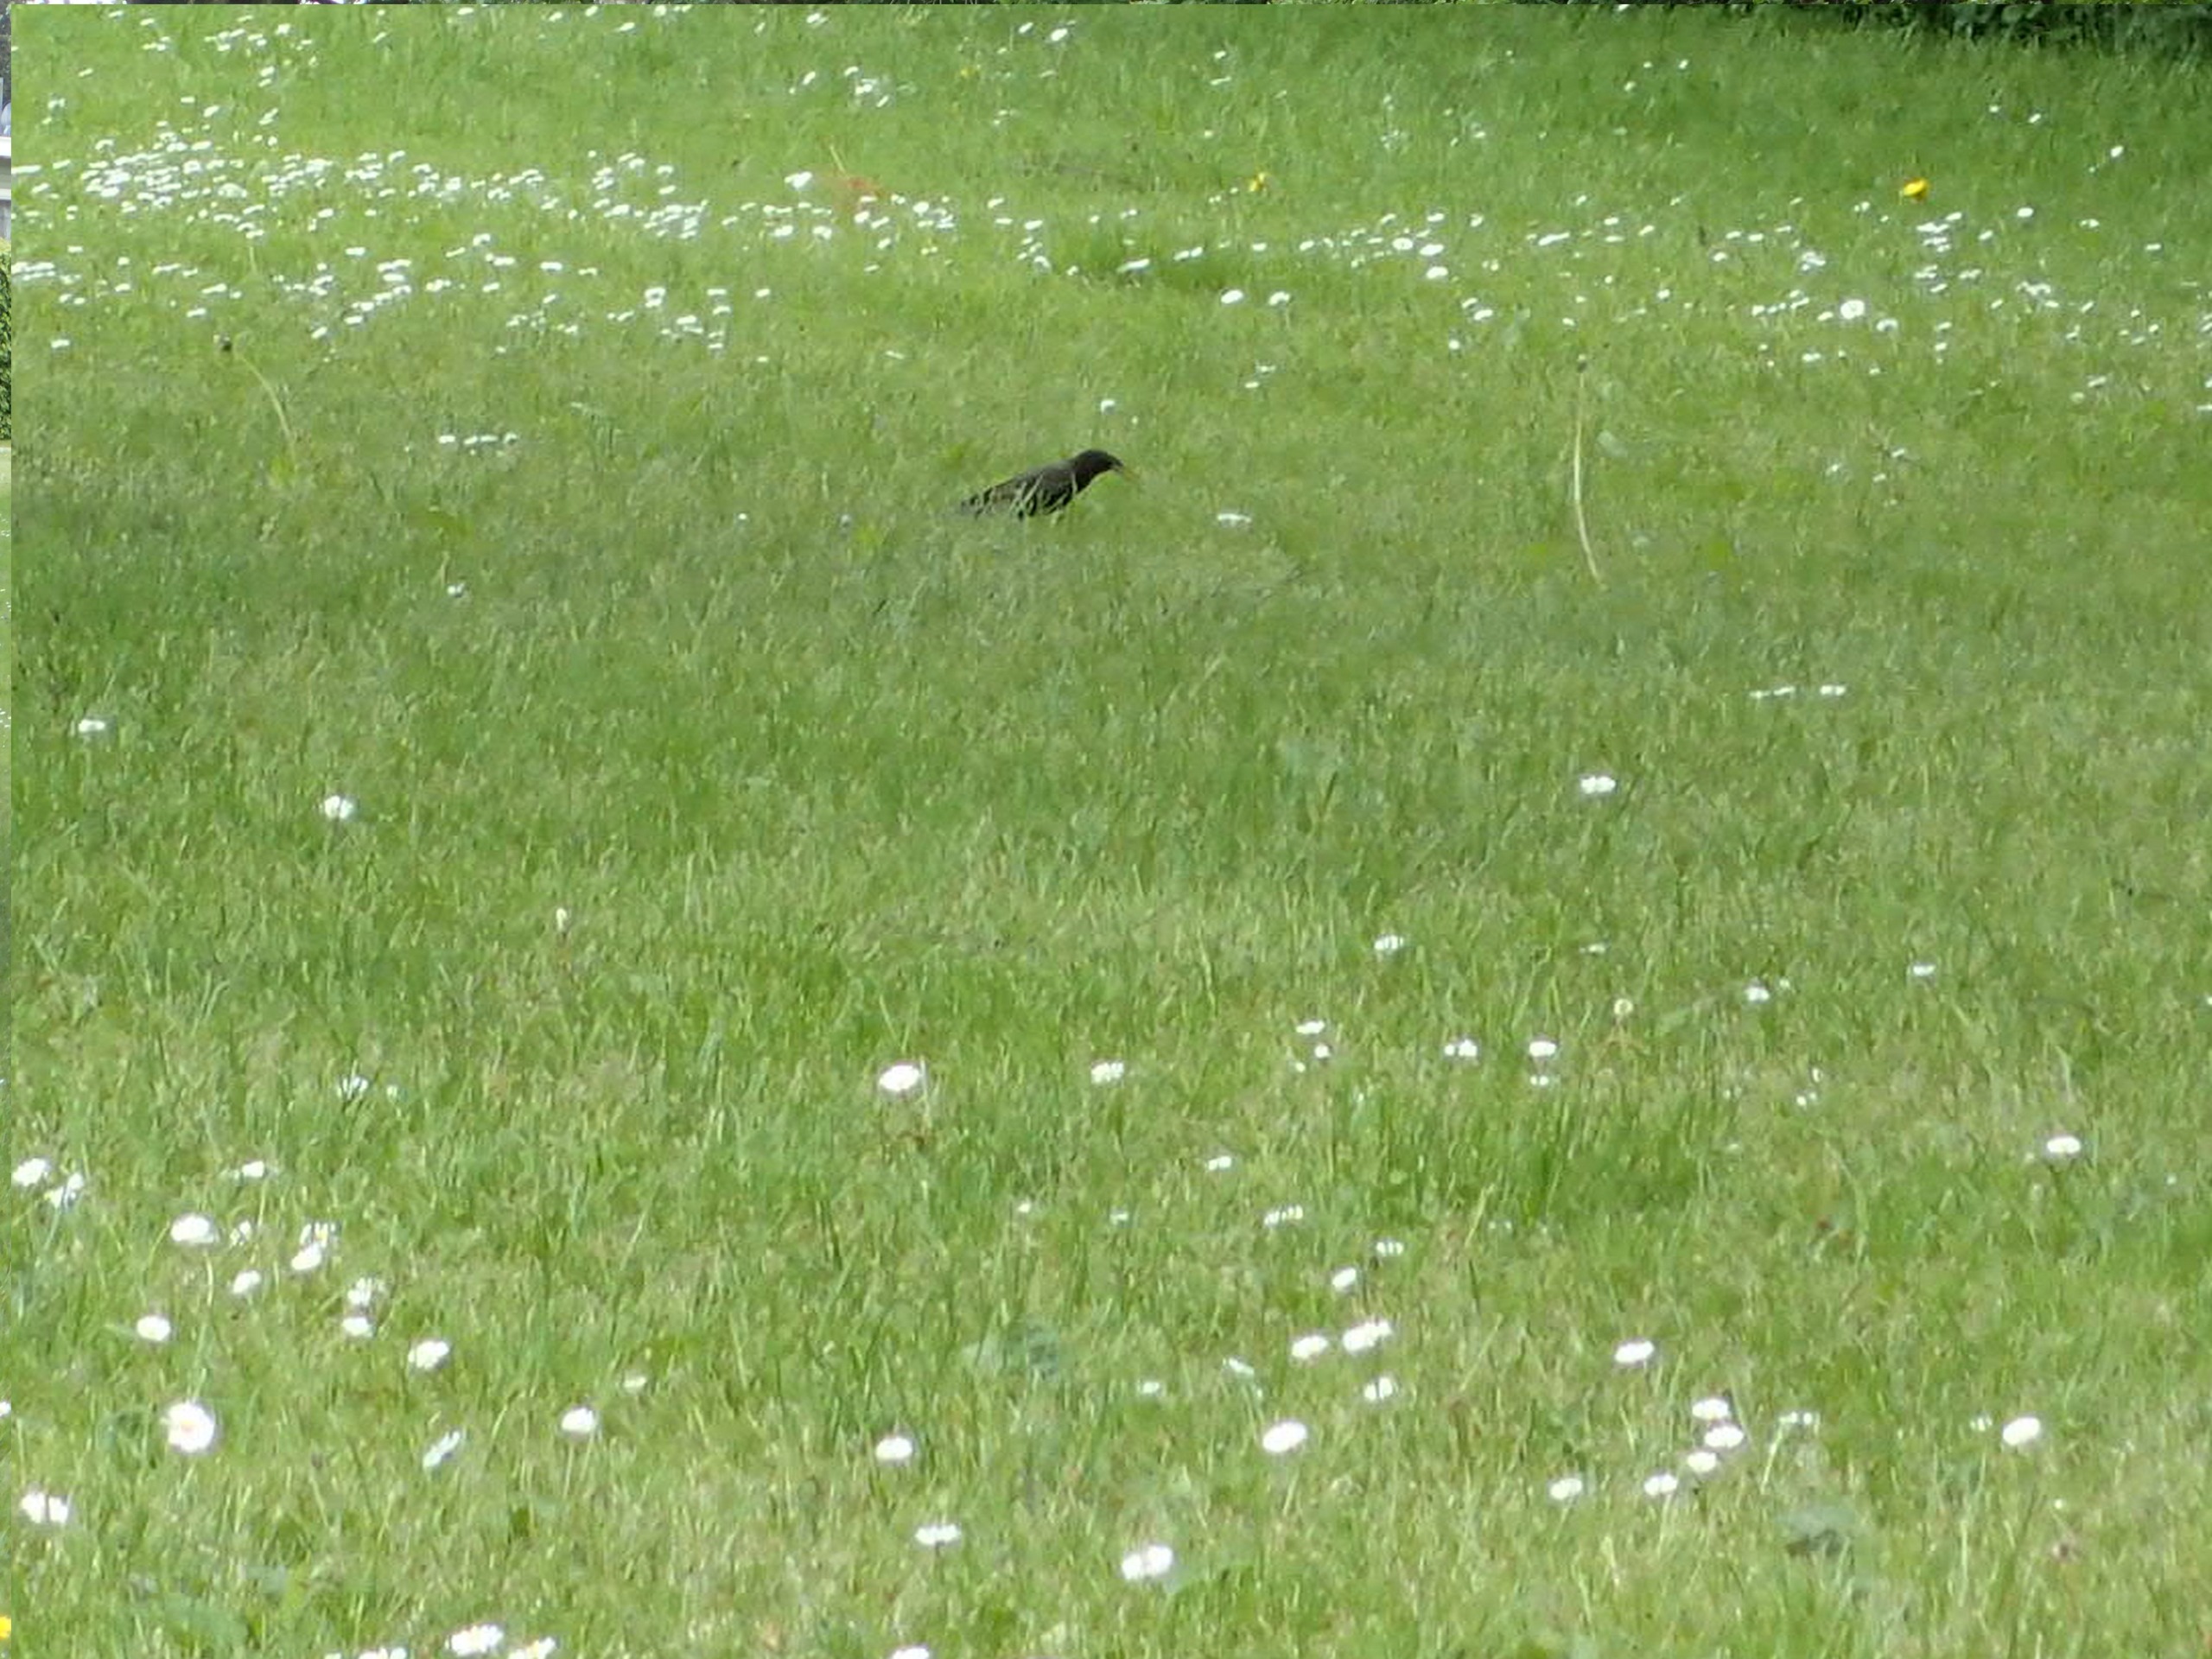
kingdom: Animalia
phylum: Chordata
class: Aves
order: Passeriformes
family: Sturnidae
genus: Sturnus
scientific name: Sturnus vulgaris
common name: Stær
